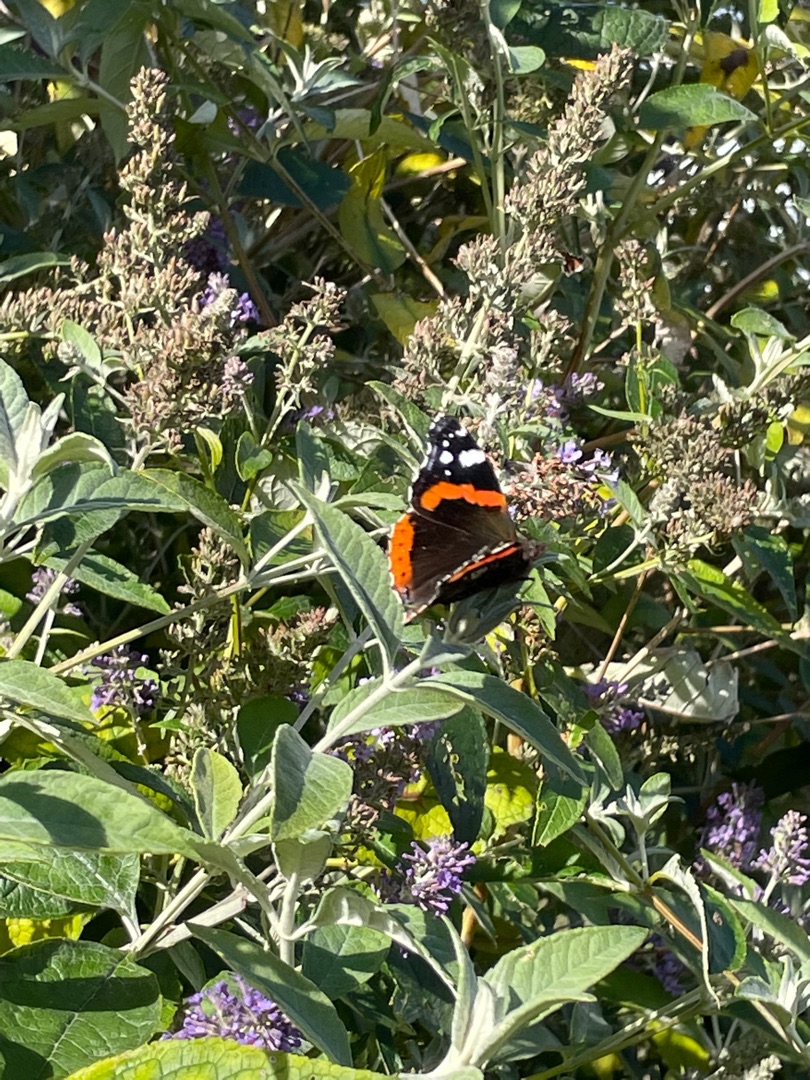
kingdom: Animalia
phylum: Arthropoda
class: Insecta
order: Lepidoptera
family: Nymphalidae
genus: Vanessa
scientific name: Vanessa atalanta
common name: Admiral
